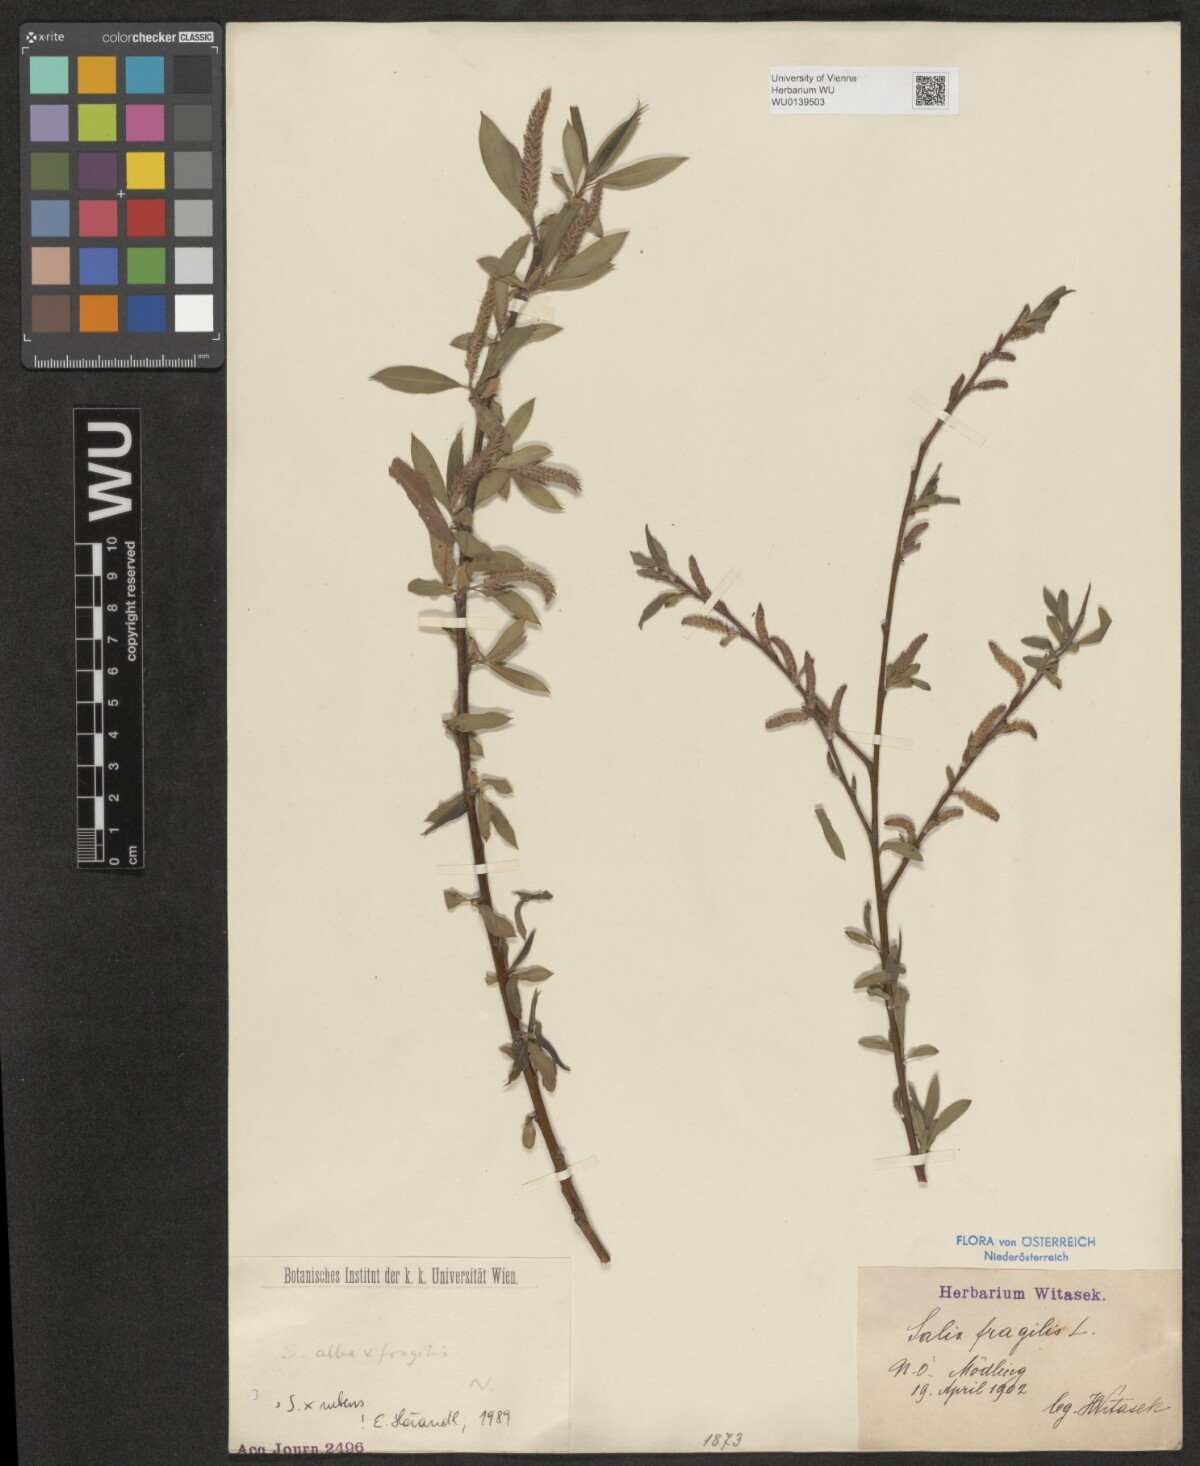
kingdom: Plantae
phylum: Tracheophyta
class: Magnoliopsida
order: Malpighiales
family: Salicaceae
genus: Salix
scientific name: Salix rubens
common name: Hybrid crack willow
